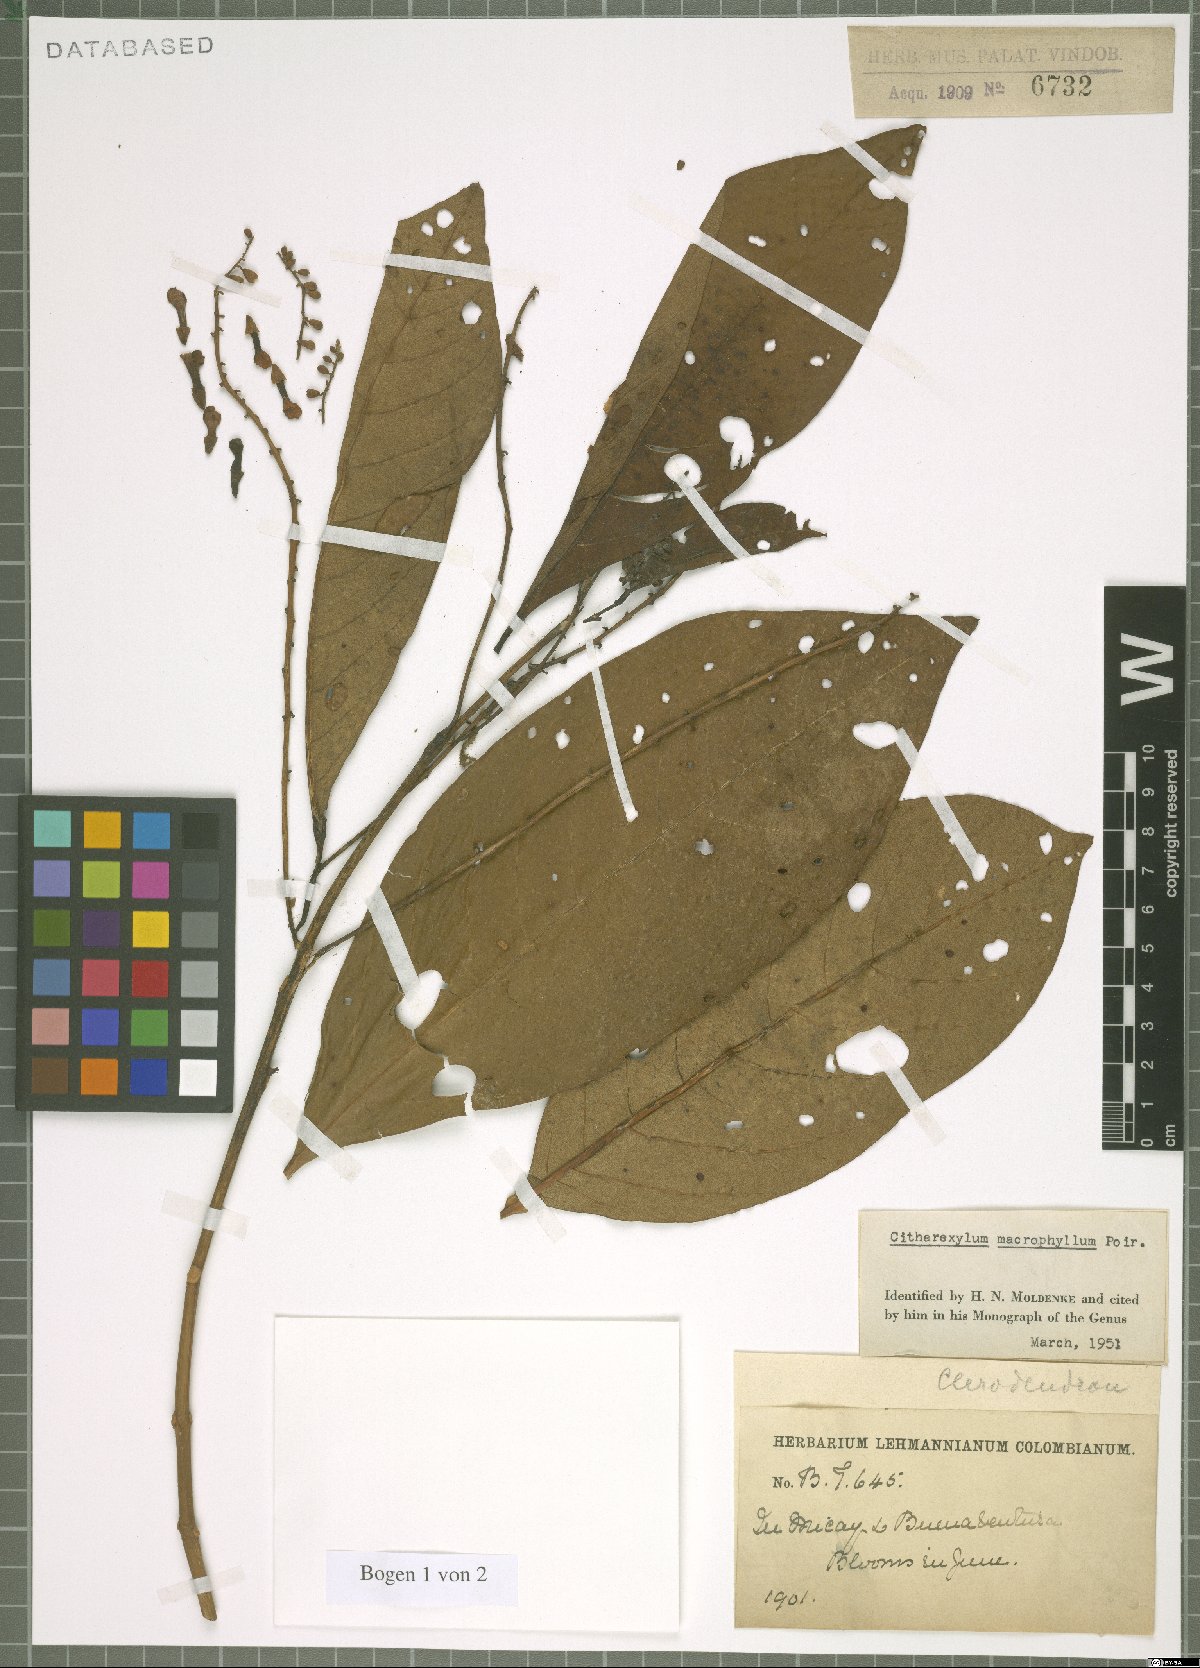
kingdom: Plantae
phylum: Tracheophyta
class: Magnoliopsida
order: Lamiales
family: Verbenaceae
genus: Citharexylum
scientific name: Citharexylum spinosum
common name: Fiddlewood
